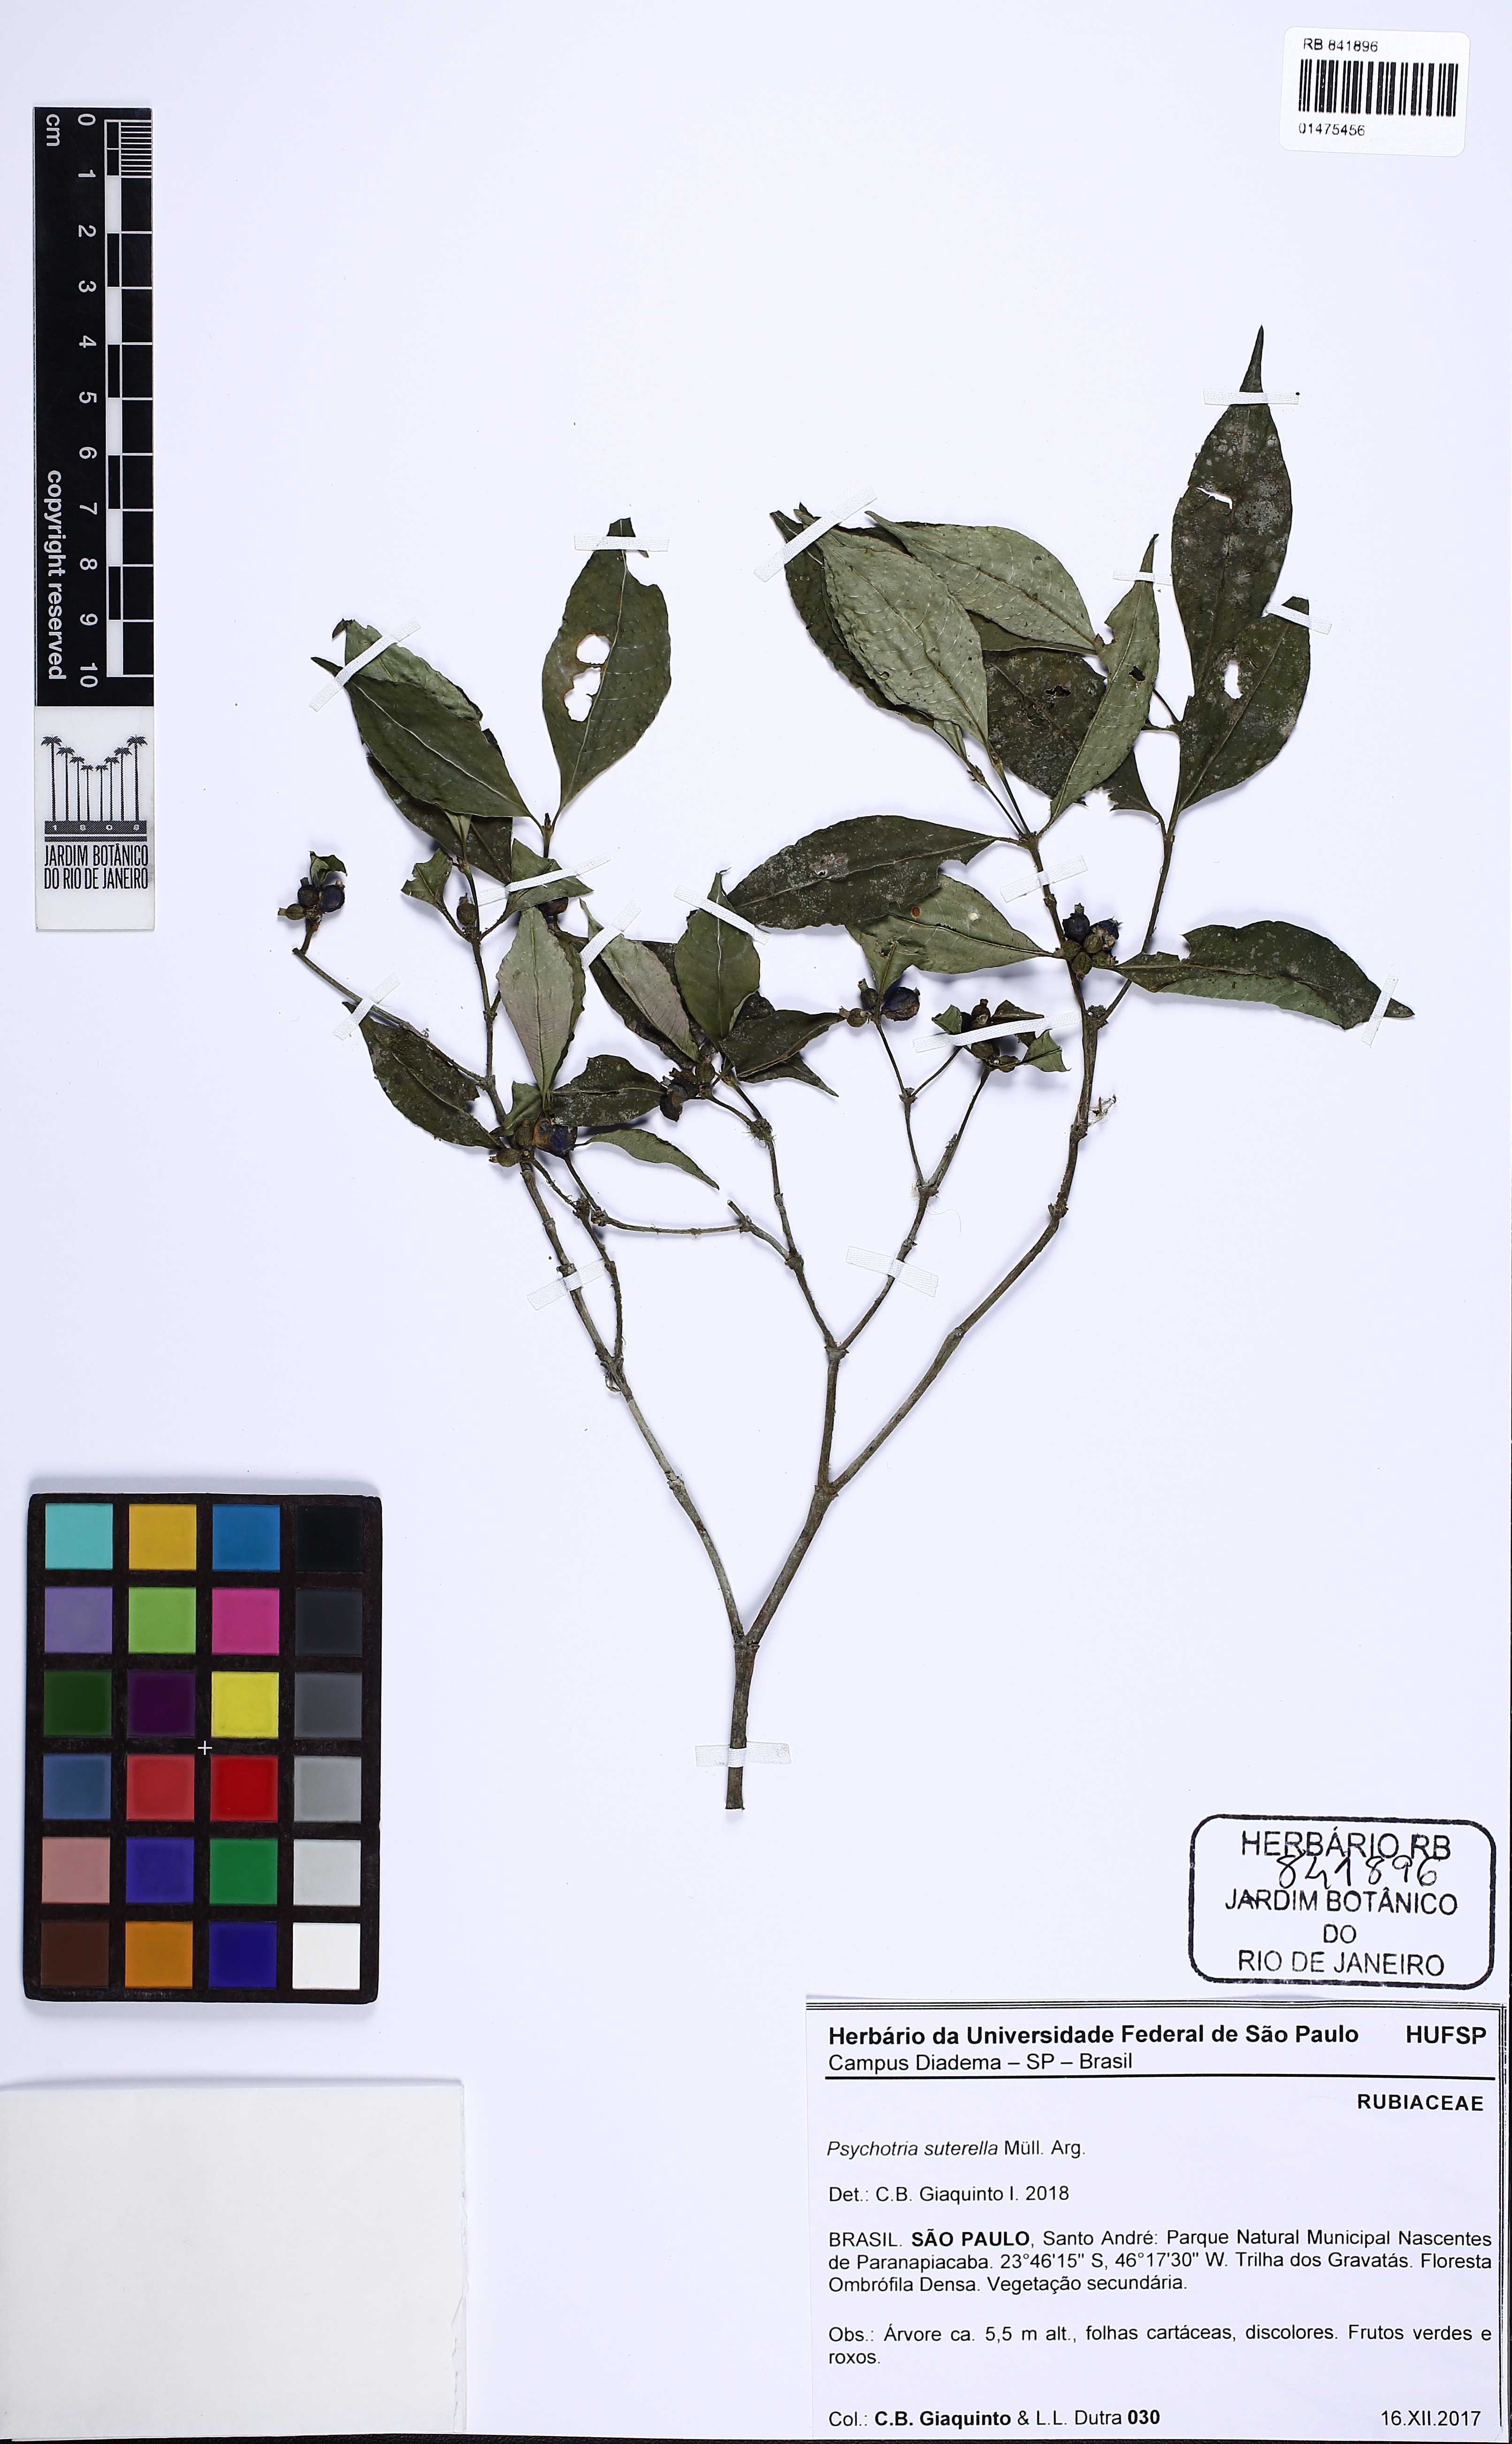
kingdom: Plantae
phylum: Tracheophyta
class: Magnoliopsida
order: Gentianales
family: Rubiaceae
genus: Psychotria
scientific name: Psychotria suterella
